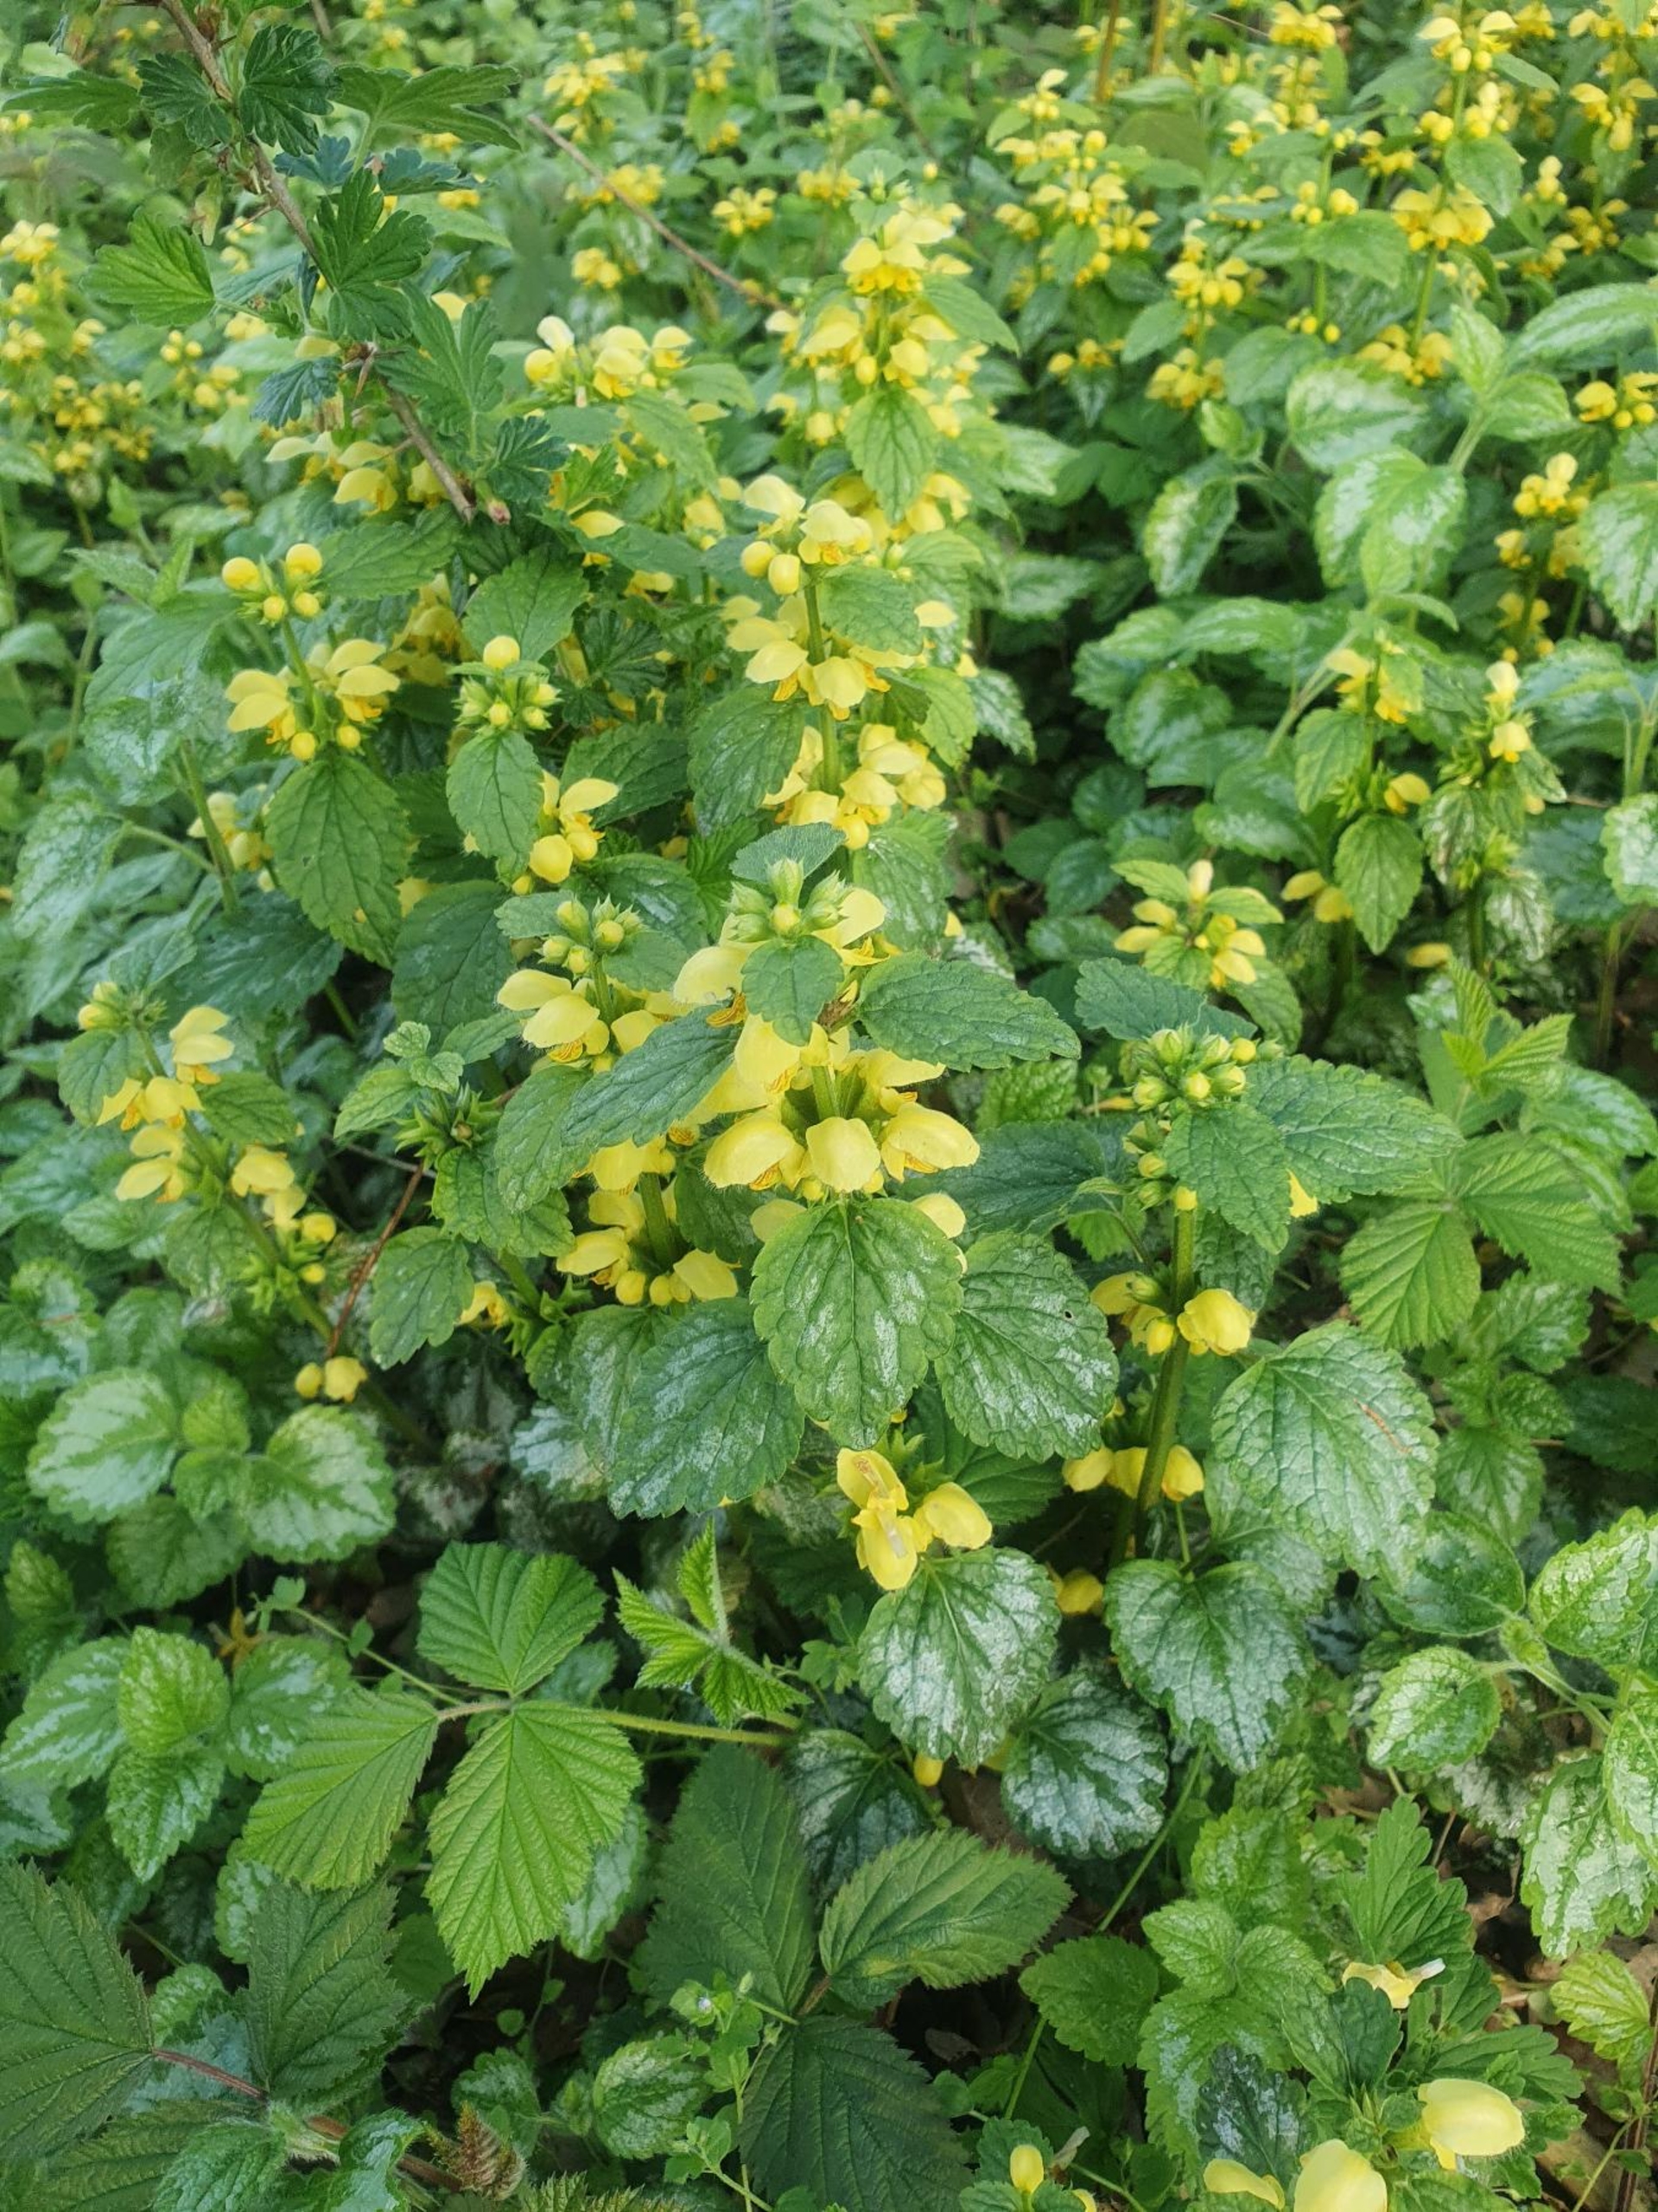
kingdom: Plantae
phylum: Tracheophyta
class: Magnoliopsida
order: Lamiales
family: Lamiaceae
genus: Lamium
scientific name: Lamium galeobdolon
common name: Have-guldnælde
